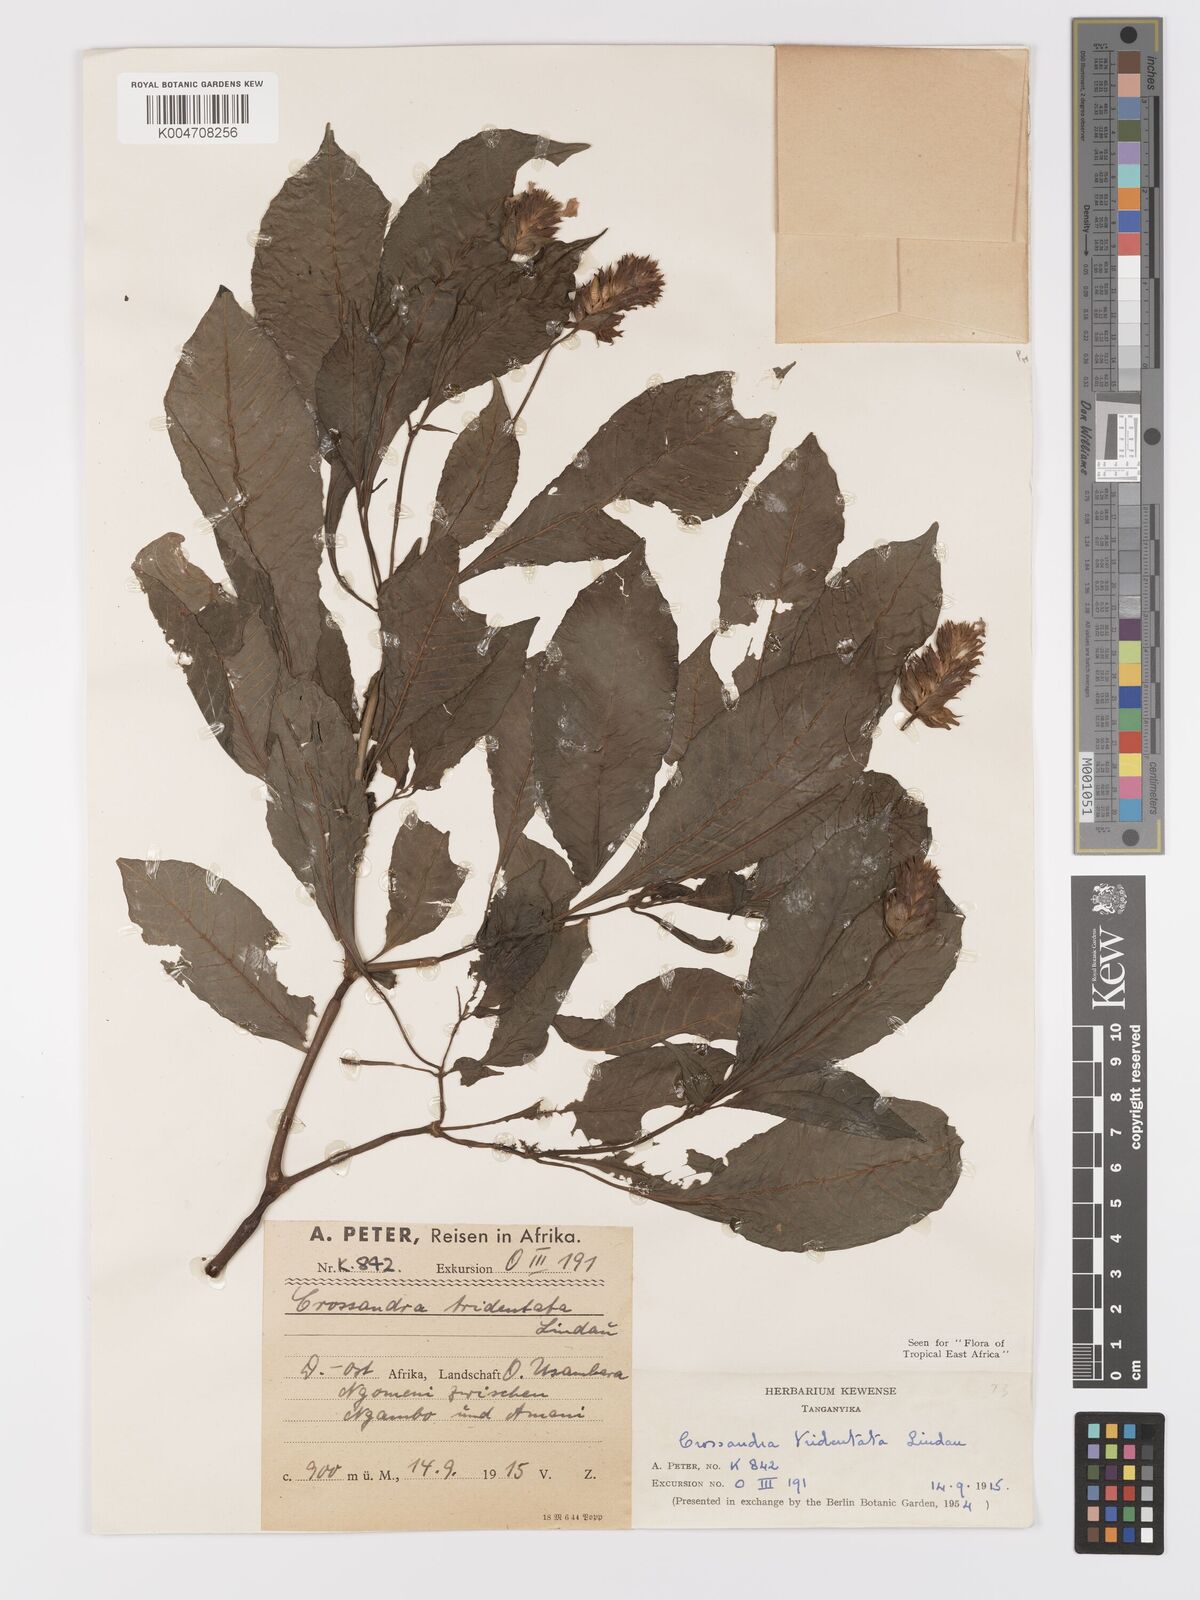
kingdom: Plantae
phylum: Tracheophyta
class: Magnoliopsida
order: Lamiales
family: Acanthaceae
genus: Crossandra
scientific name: Crossandra tridentata
